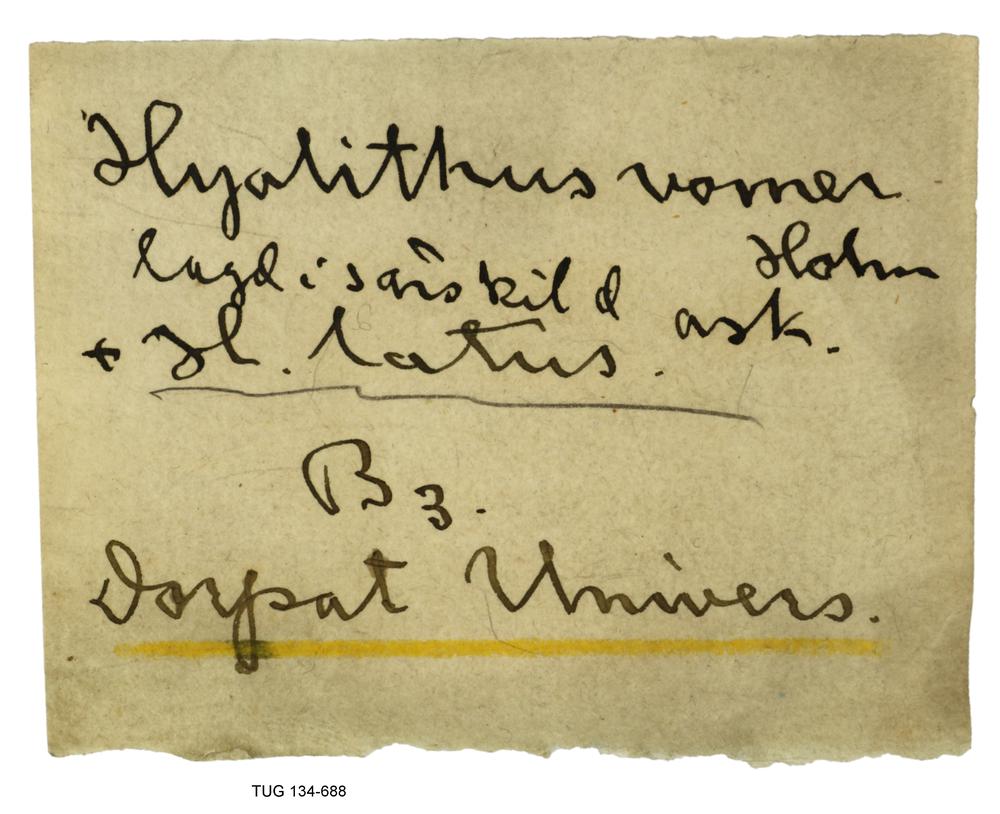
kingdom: Animalia
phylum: Annelida
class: Polychaeta
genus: Hyolithes
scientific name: Hyolithes acutus
